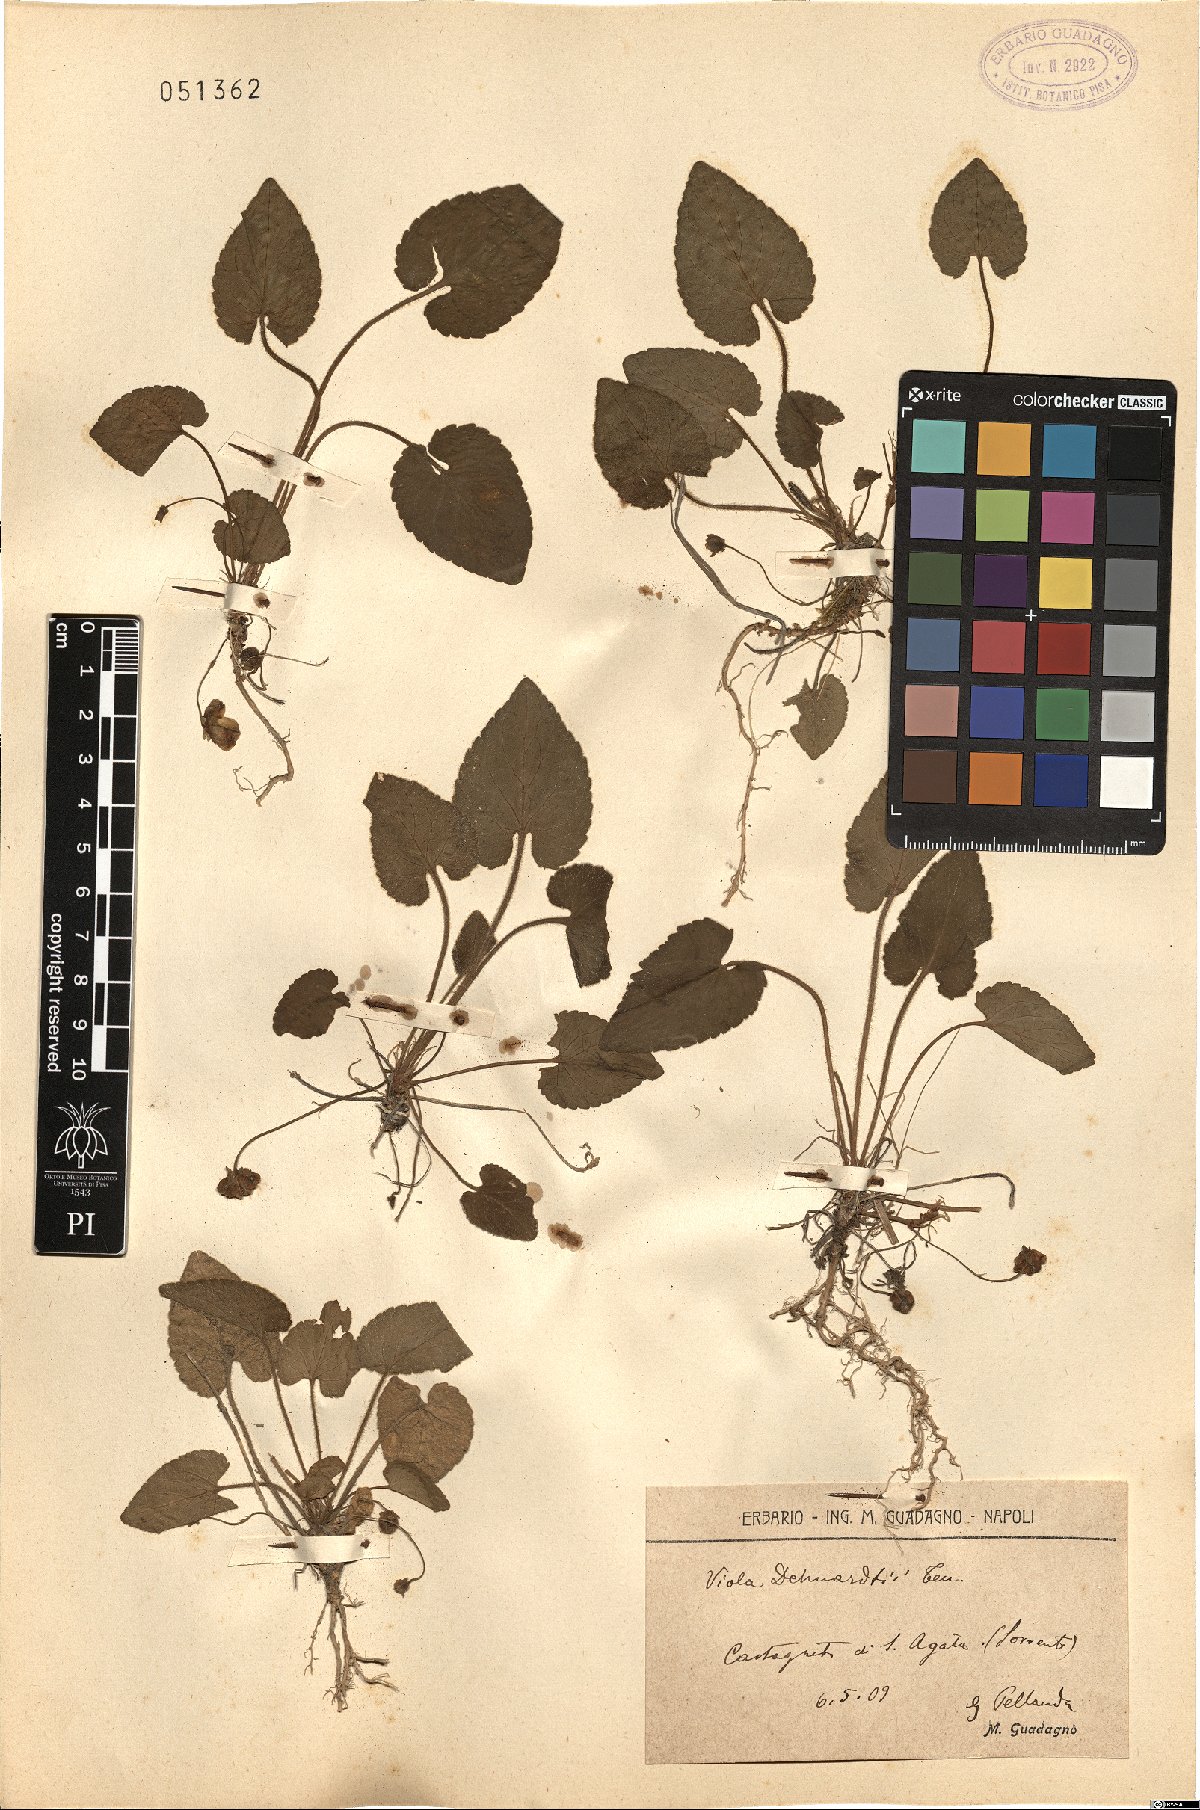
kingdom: Plantae
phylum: Tracheophyta
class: Magnoliopsida
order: Malpighiales
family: Violaceae
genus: Viola
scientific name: Viola alba
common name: White violet
